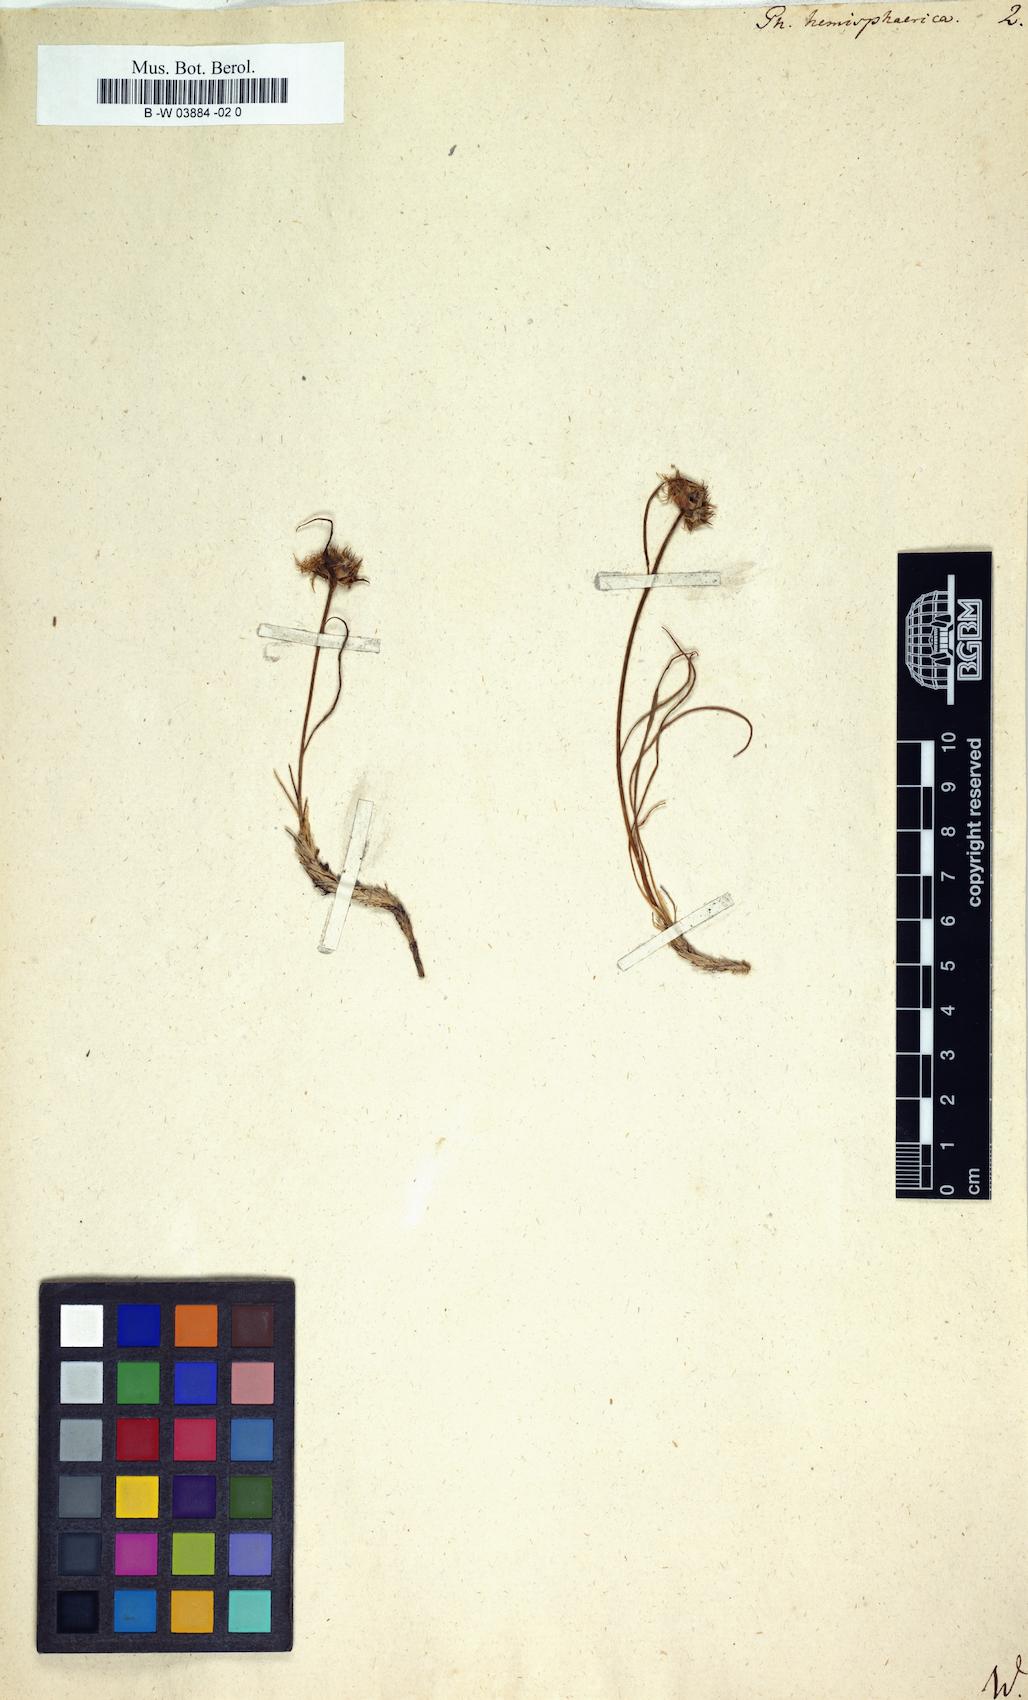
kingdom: Plantae
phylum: Tracheophyta
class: Magnoliopsida
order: Asterales
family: Campanulaceae
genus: Phyteuma
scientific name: Phyteuma hemisphaericum
